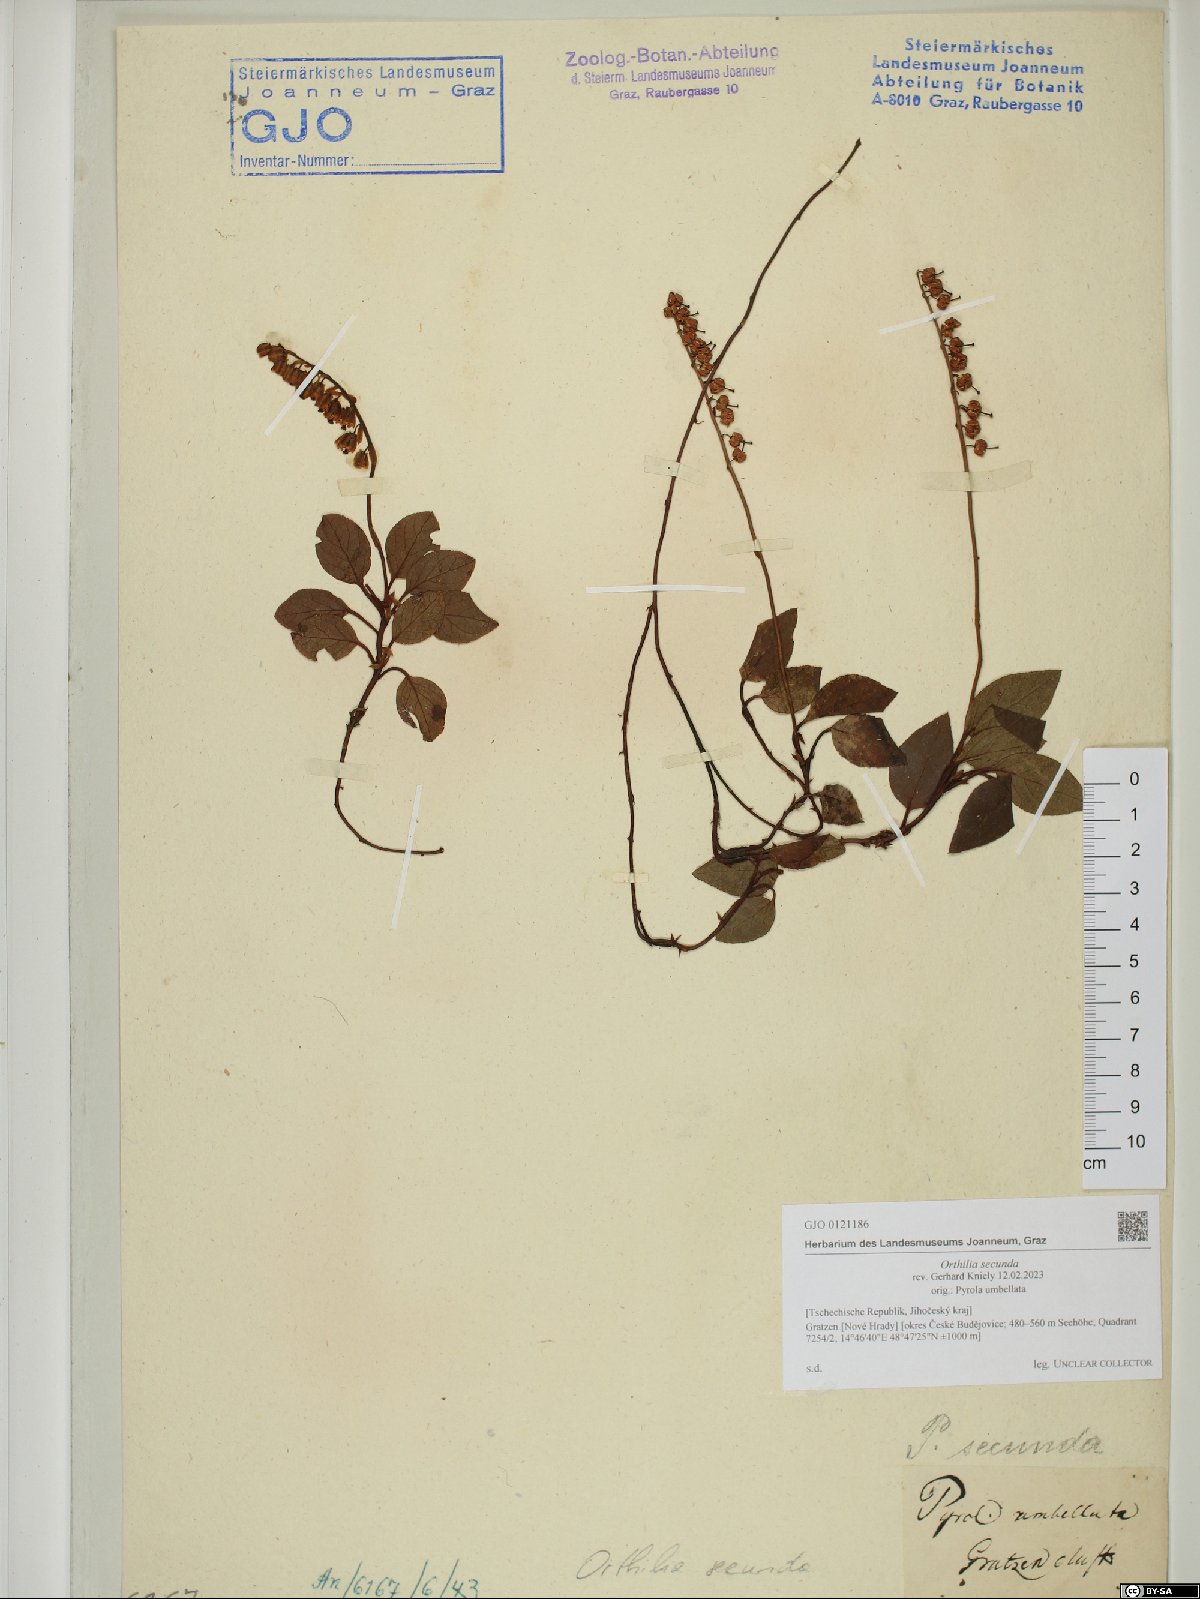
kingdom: Plantae
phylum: Tracheophyta
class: Magnoliopsida
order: Ericales
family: Ericaceae
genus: Orthilia
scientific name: Orthilia secunda
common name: One-sided orthilia
